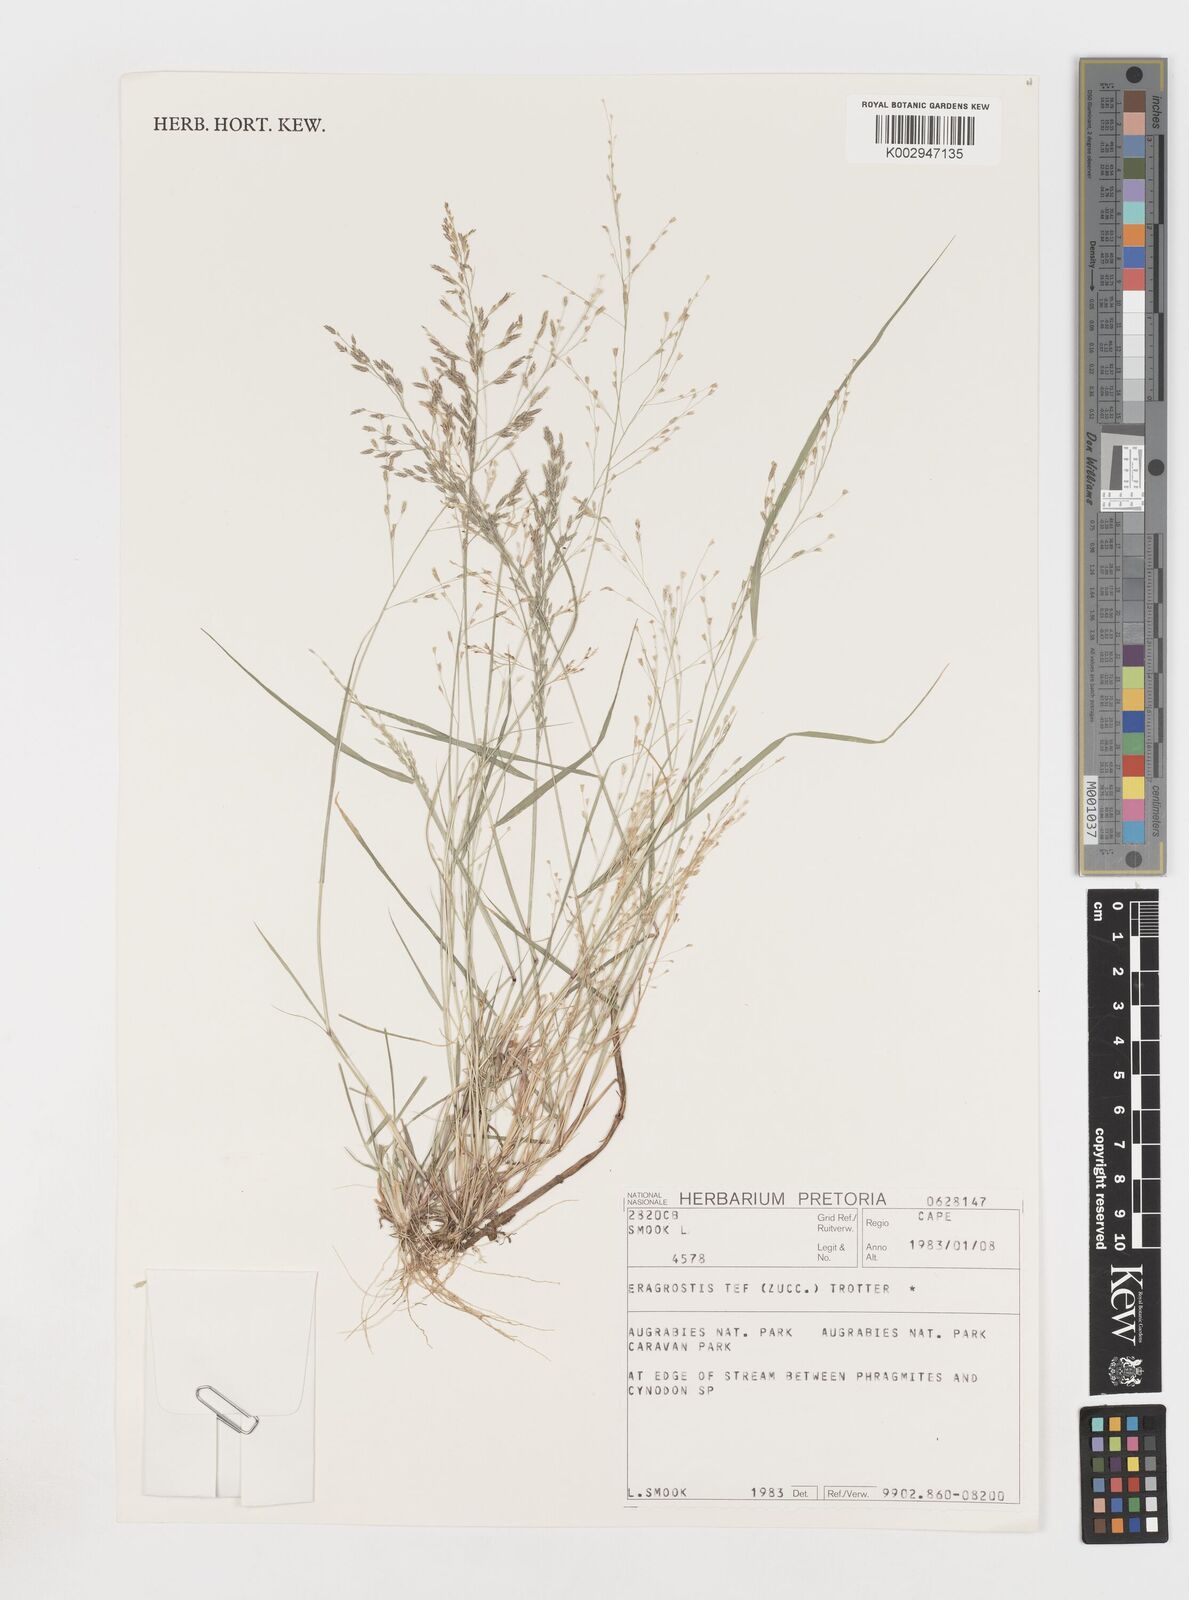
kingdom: Plantae
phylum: Tracheophyta
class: Liliopsida
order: Poales
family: Poaceae
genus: Eragrostis
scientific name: Eragrostis tef
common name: Teff
